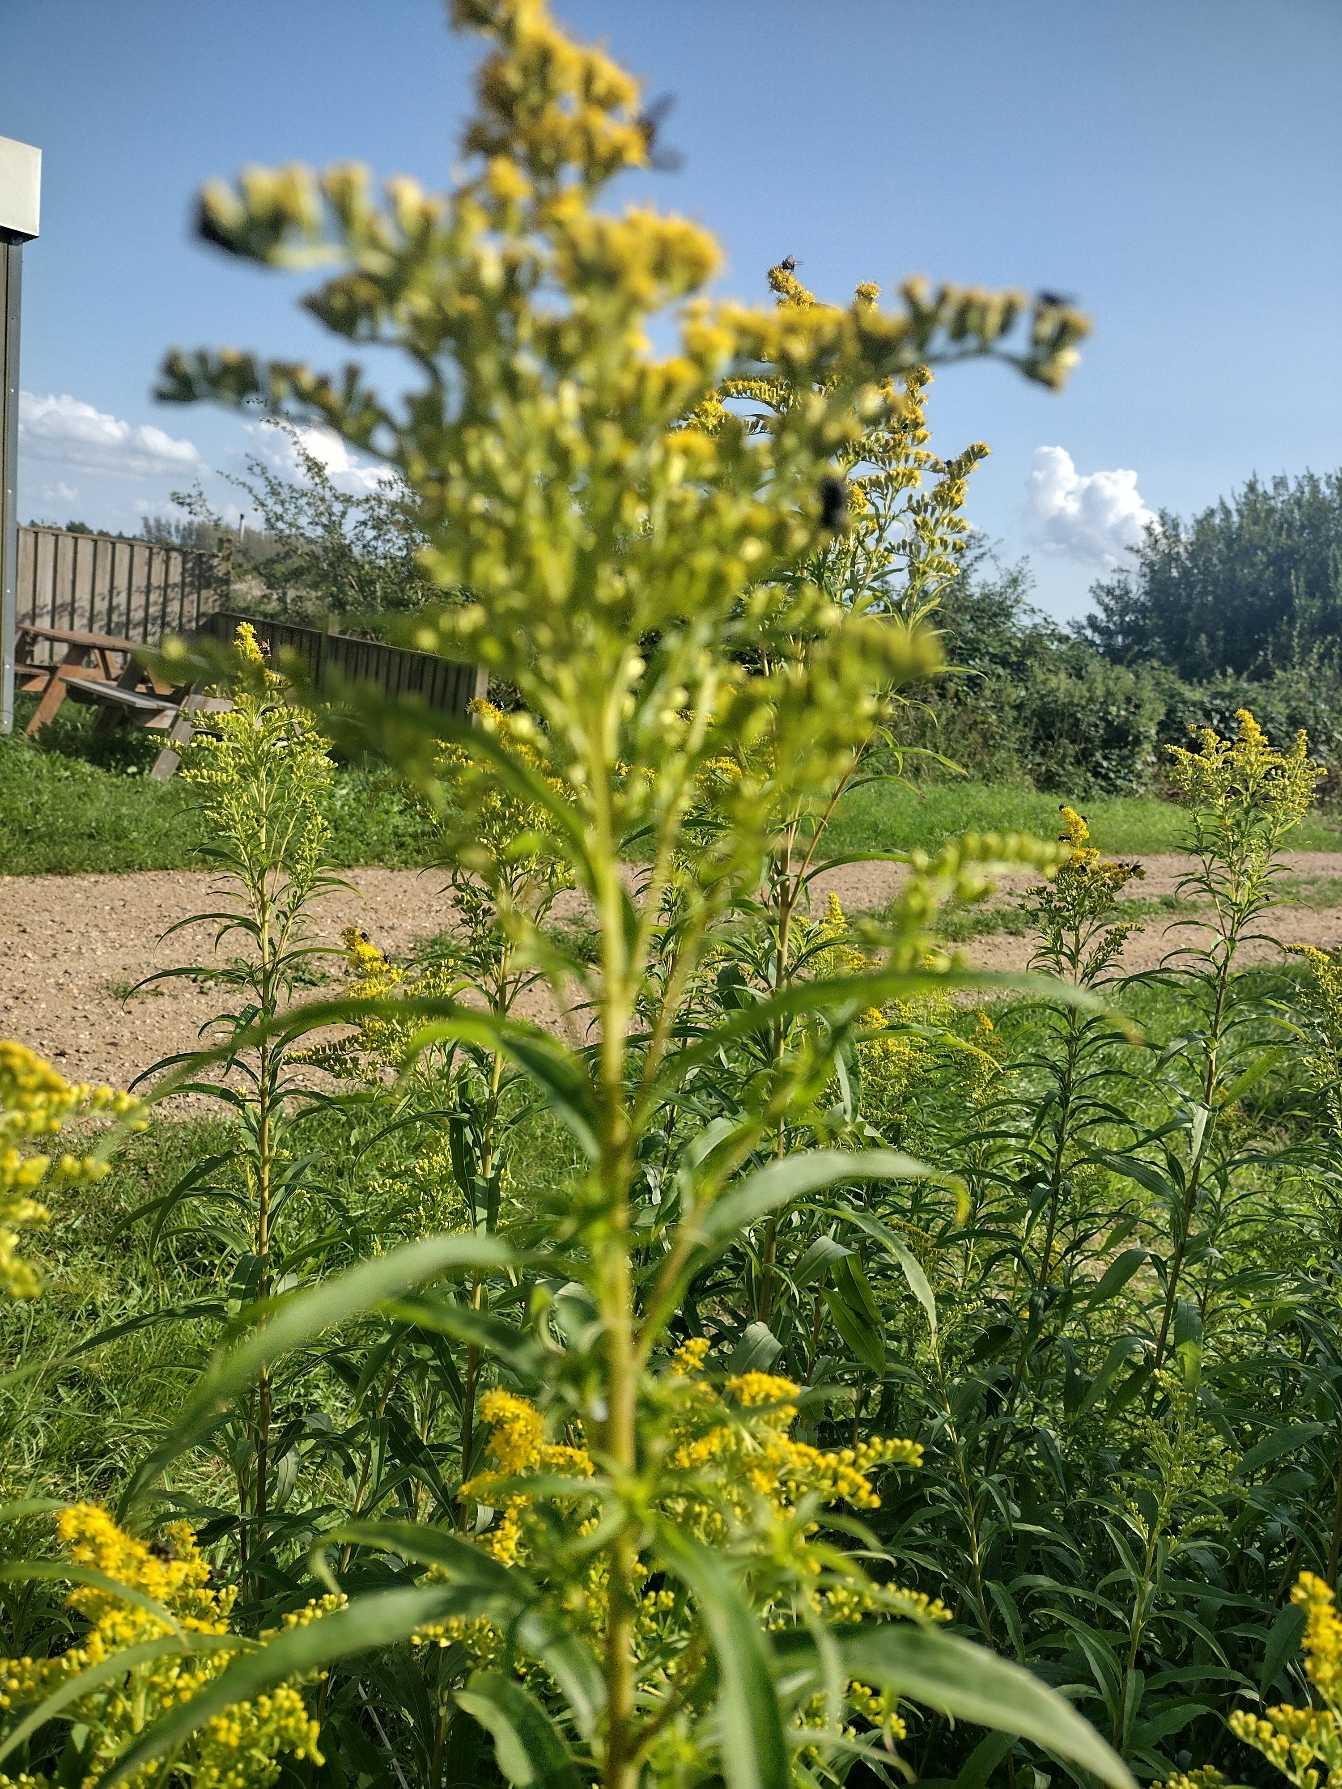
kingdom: Plantae
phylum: Tracheophyta
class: Magnoliopsida
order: Asterales
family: Asteraceae
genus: Solidago
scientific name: Solidago gigantea
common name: Sildig gyldenris
